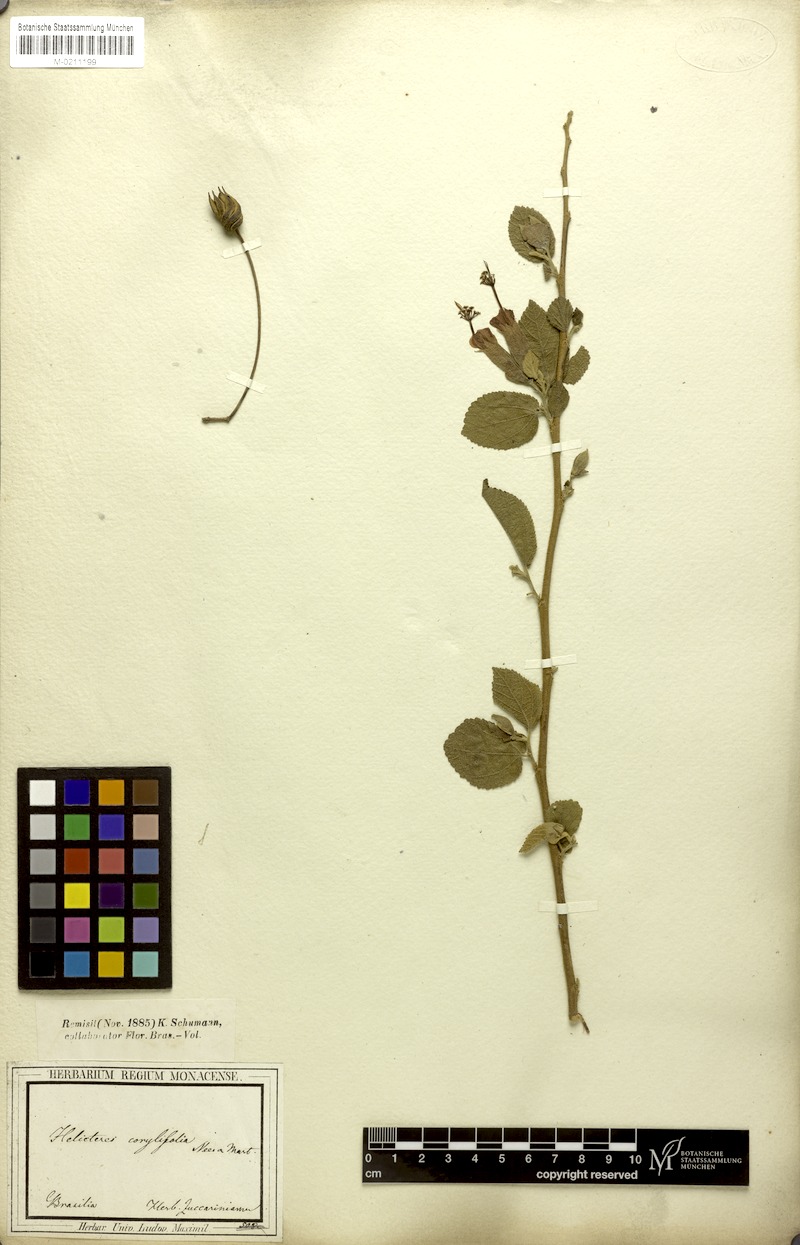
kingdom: Plantae
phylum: Tracheophyta
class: Magnoliopsida
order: Malvales
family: Malvaceae
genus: Helicteres
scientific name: Helicteres corylifolia
